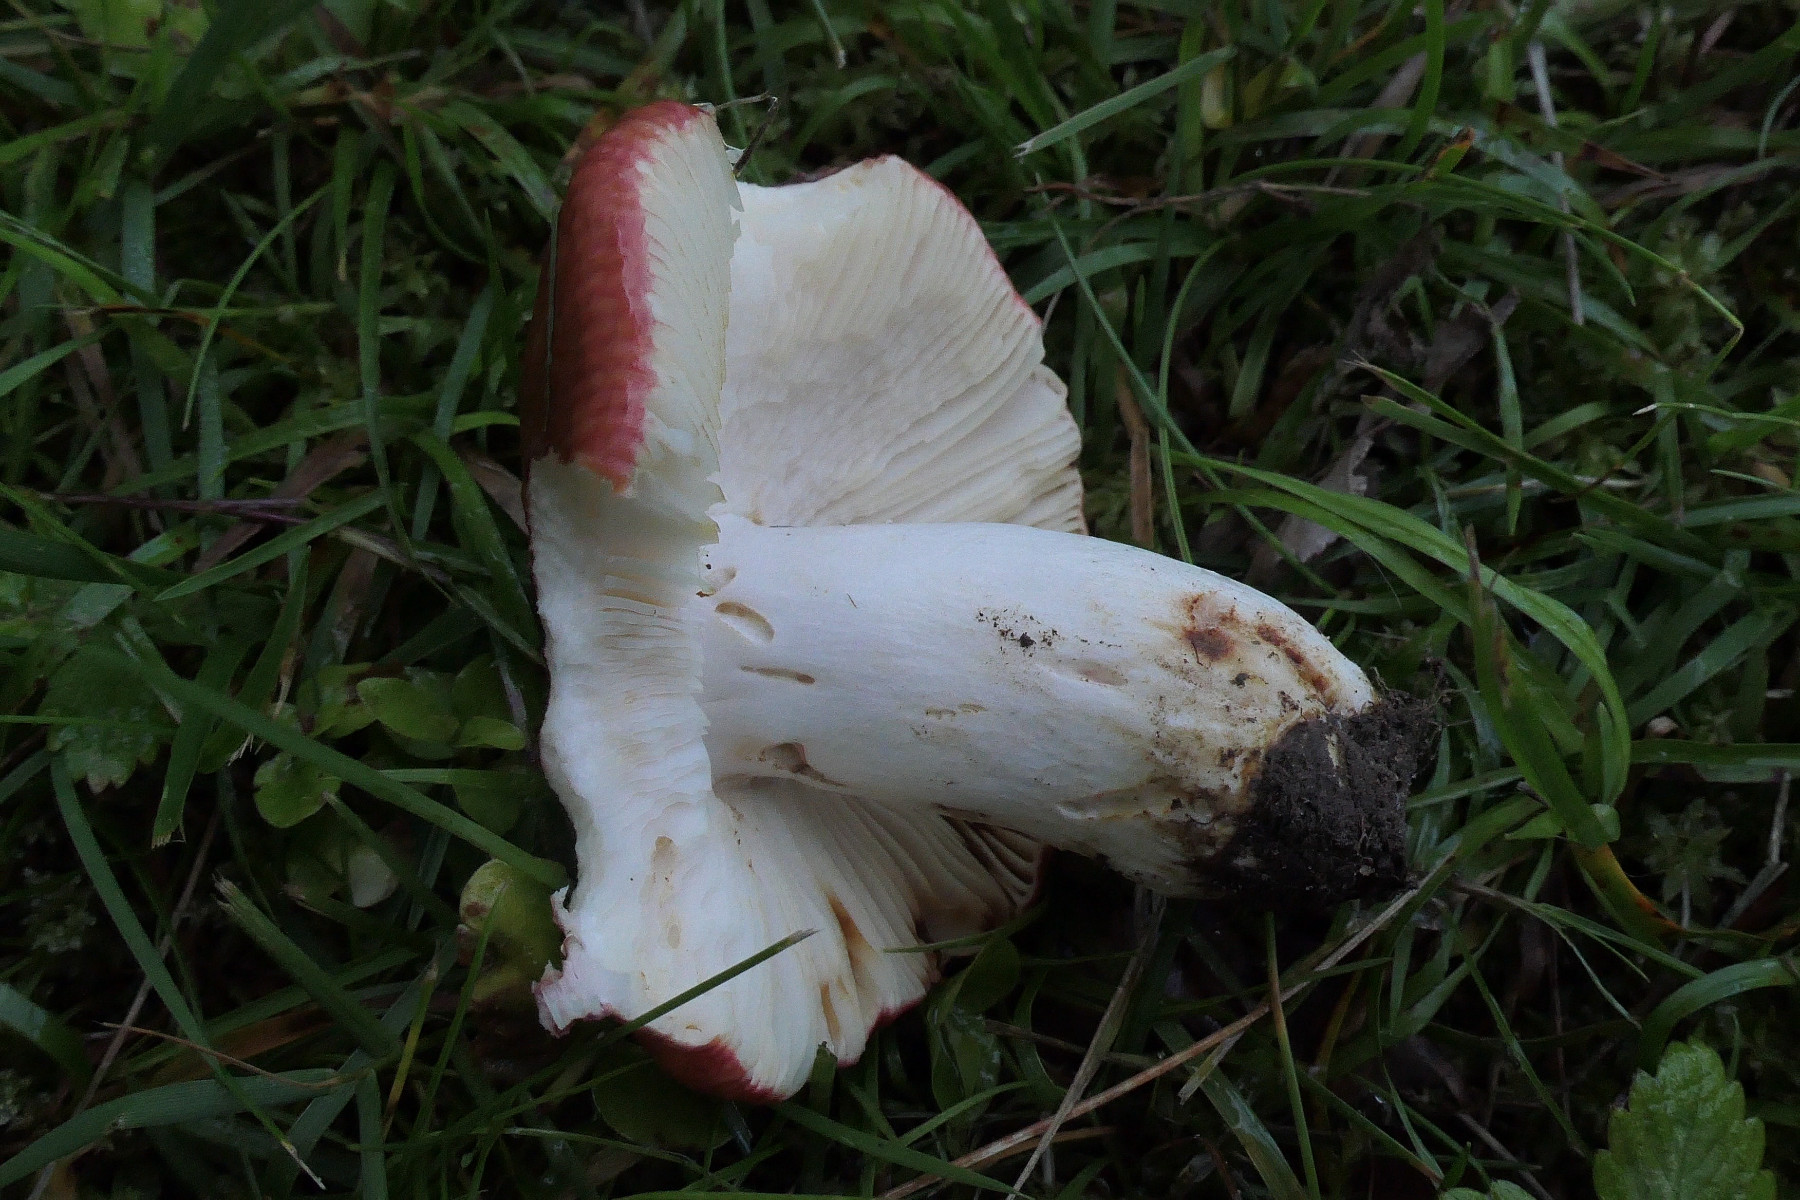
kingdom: Fungi
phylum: Basidiomycota
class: Agaricomycetes
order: Russulales
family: Russulaceae
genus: Russula
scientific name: Russula melliolens
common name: honning-skørhat
